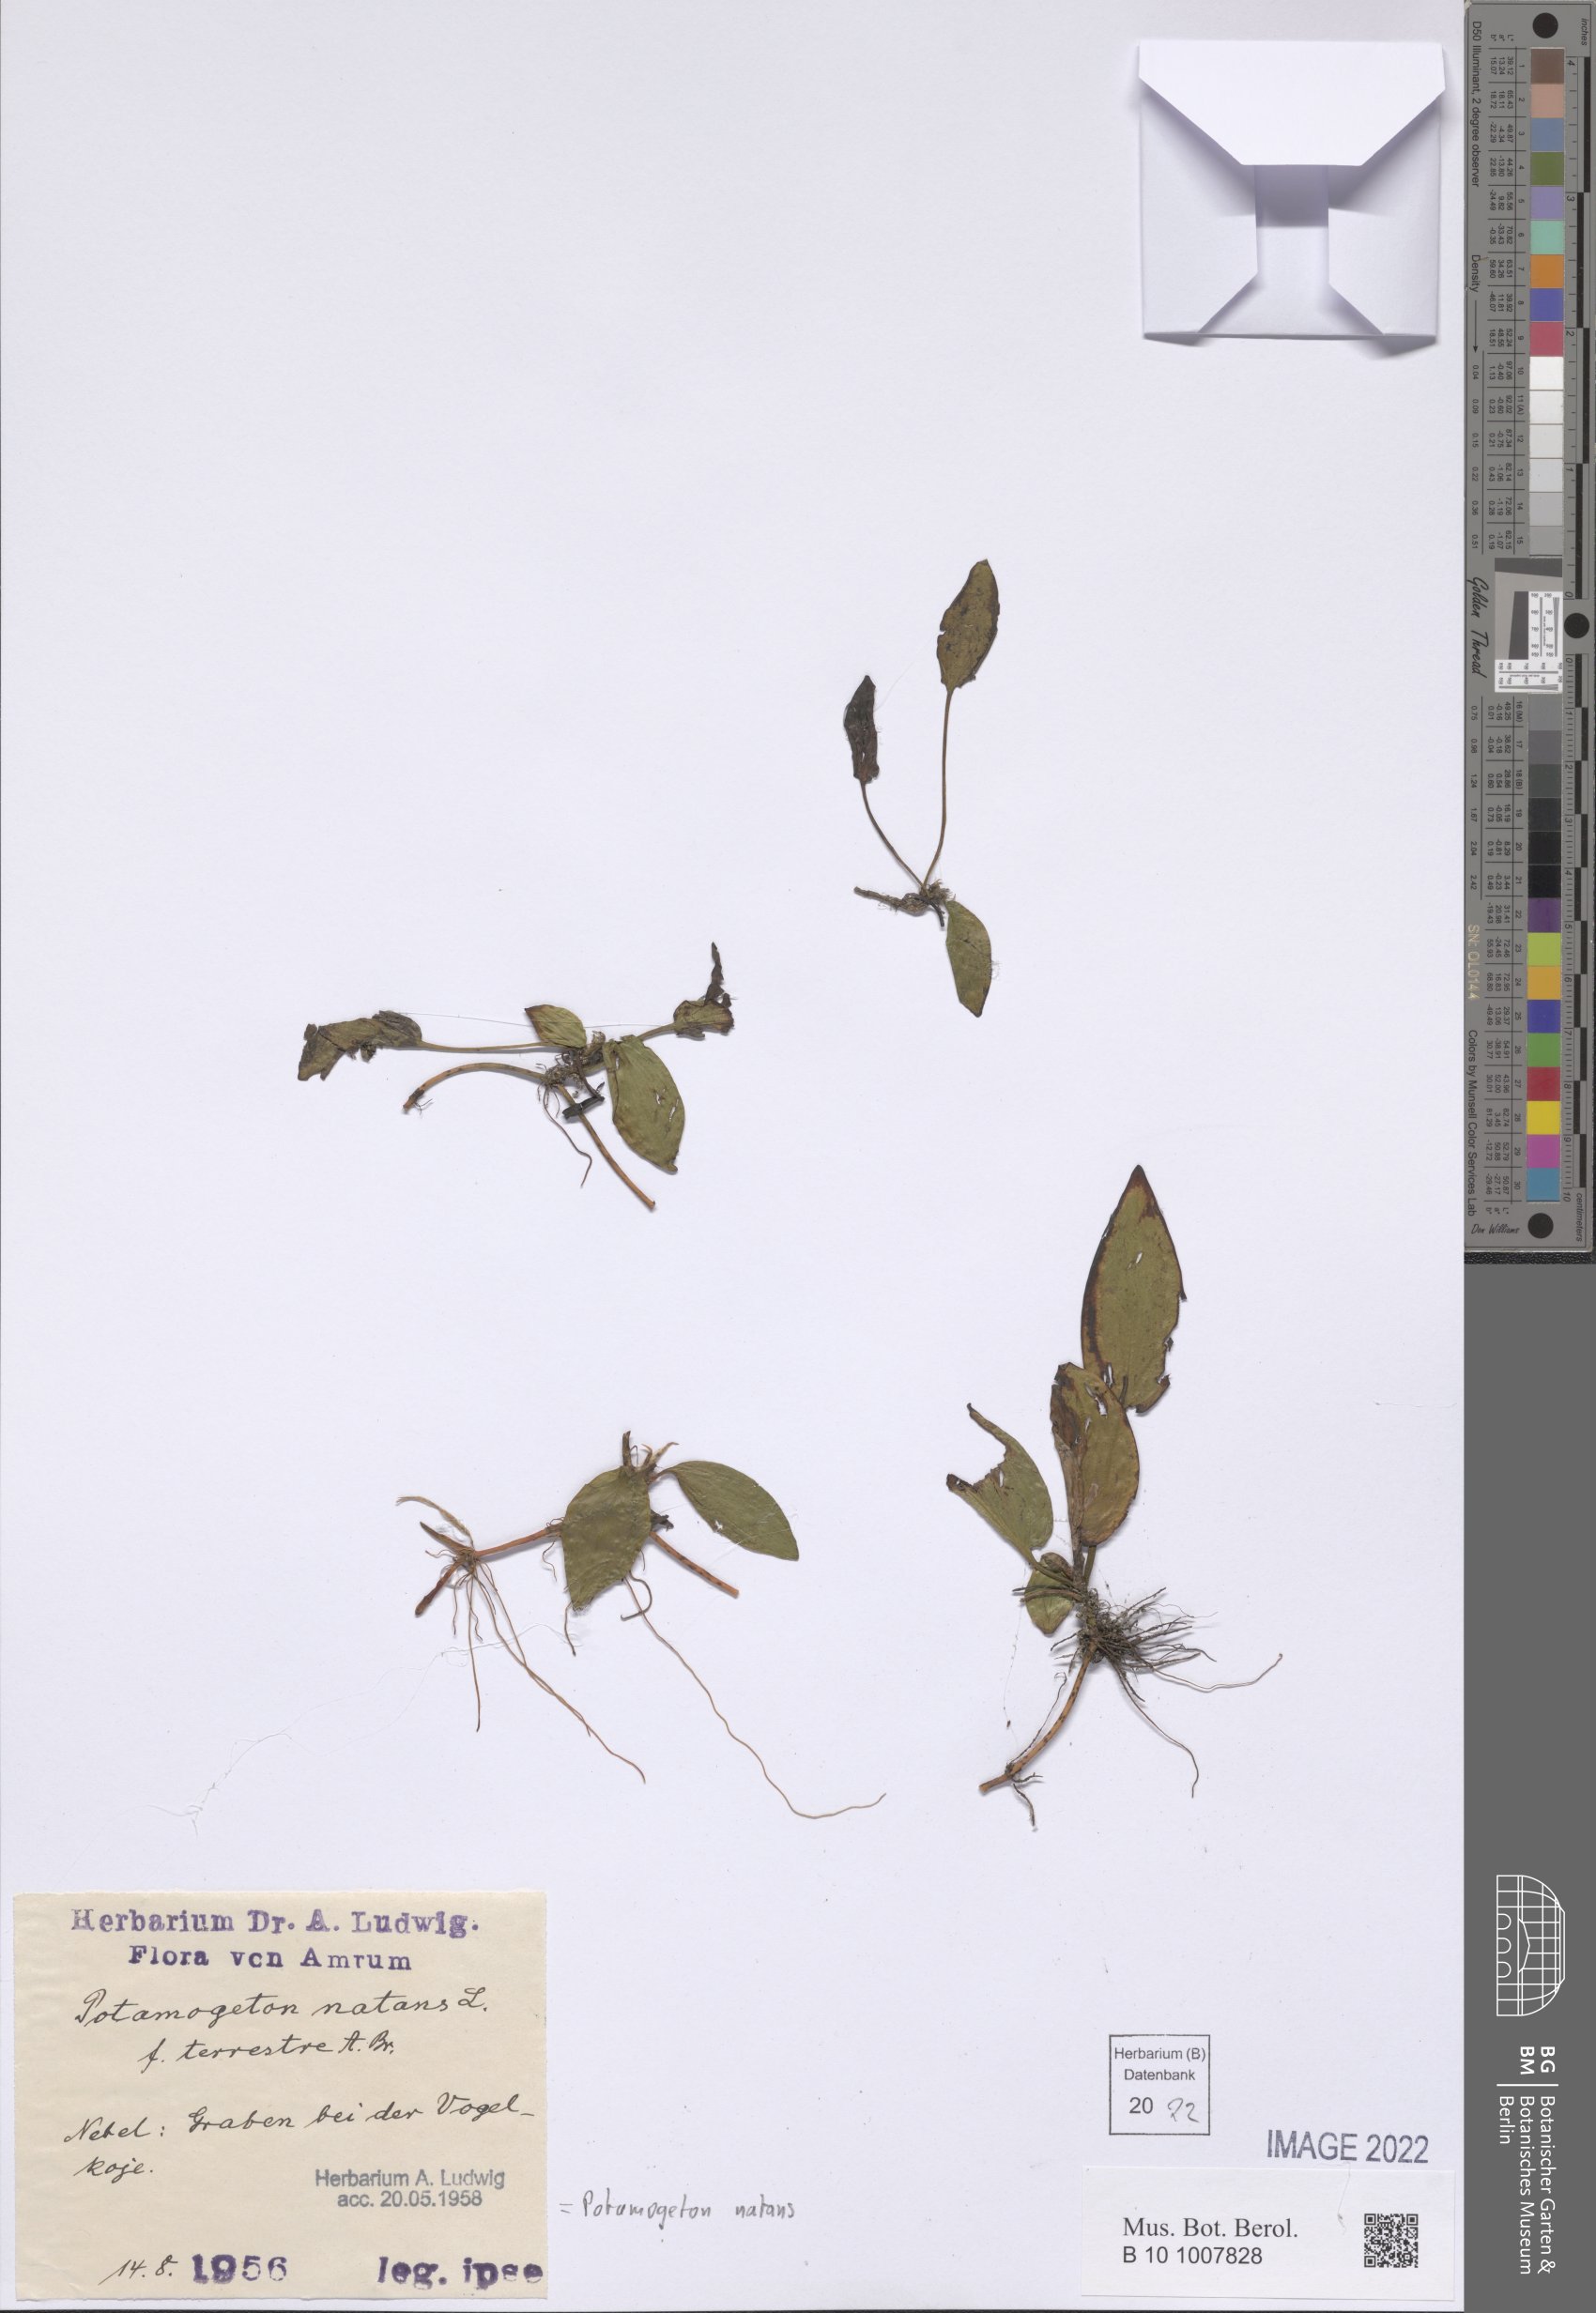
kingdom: Plantae
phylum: Tracheophyta
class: Liliopsida
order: Alismatales
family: Potamogetonaceae
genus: Potamogeton
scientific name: Potamogeton natans
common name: Broad-leaved pondweed
